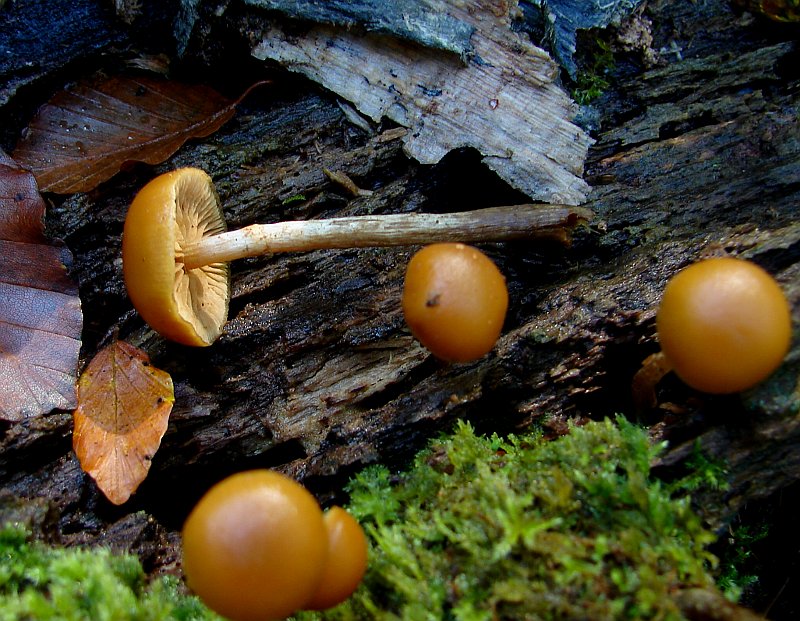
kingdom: Fungi
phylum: Basidiomycota
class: Agaricomycetes
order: Agaricales
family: Hymenogastraceae
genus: Galerina
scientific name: Galerina marginata
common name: randbæltet hjelmhat
